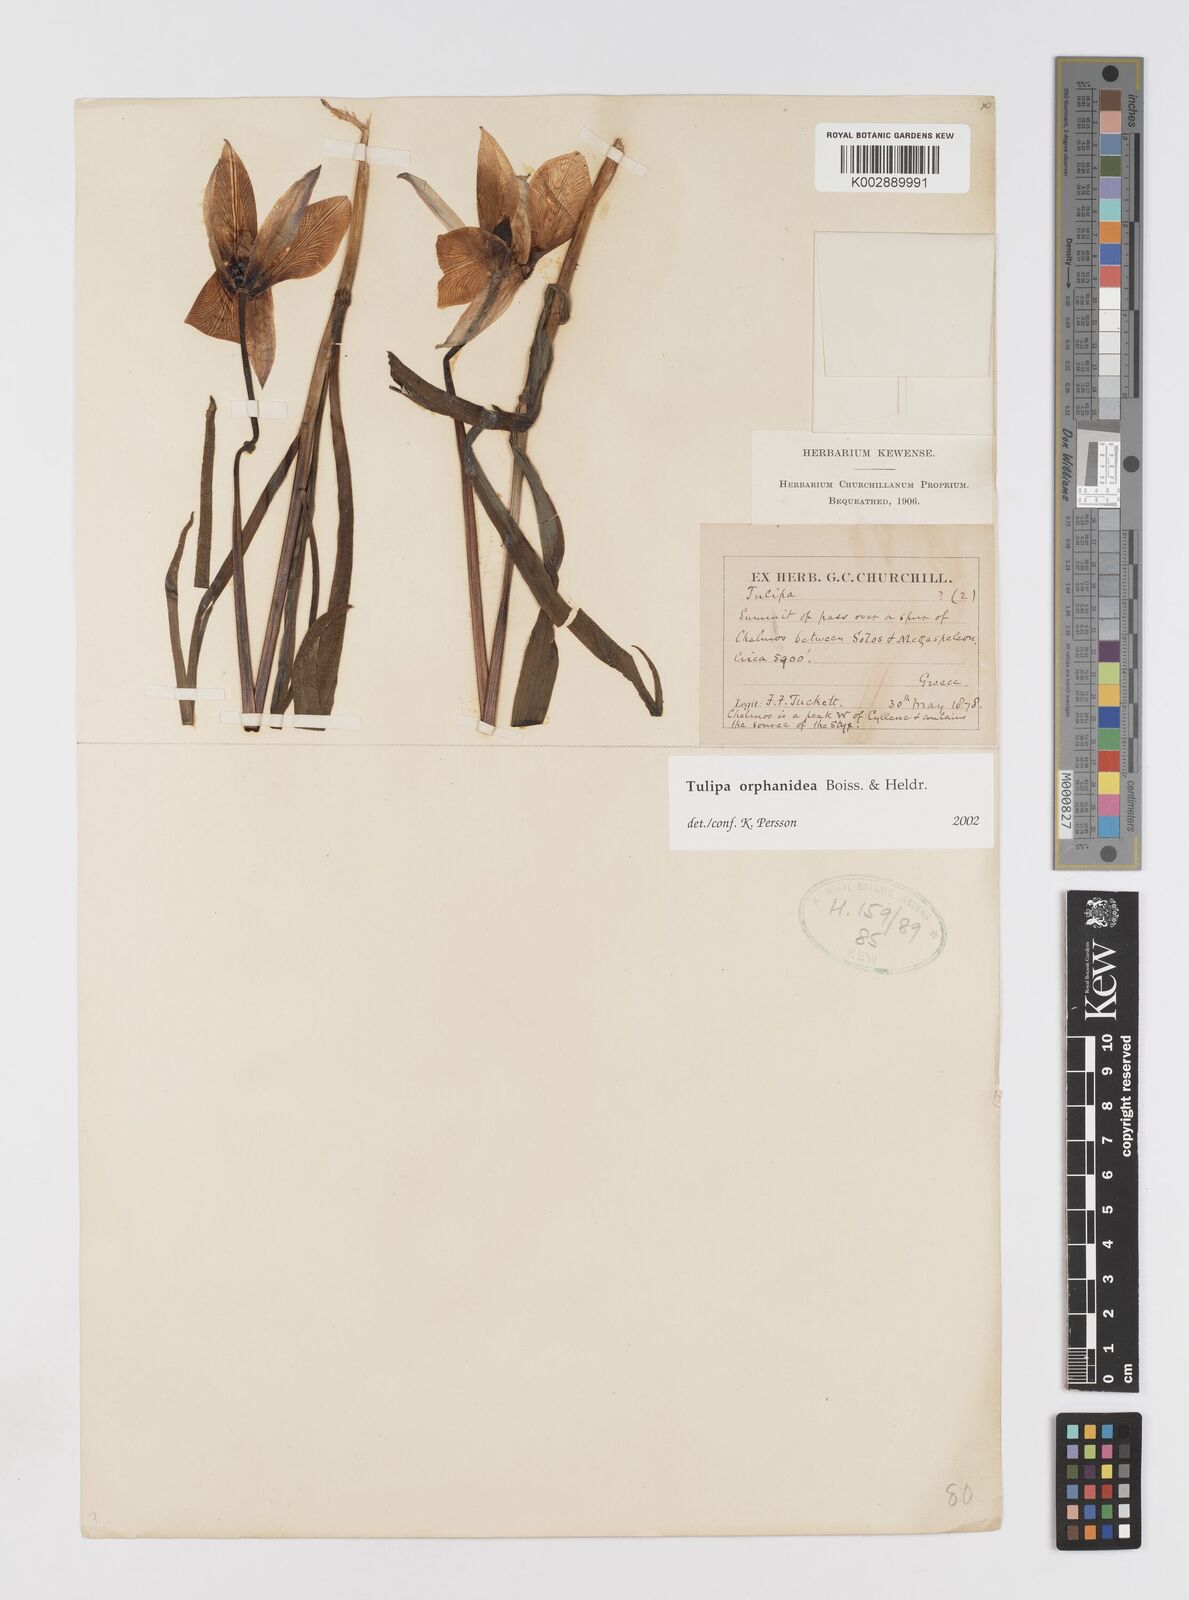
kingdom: Plantae
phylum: Tracheophyta
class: Liliopsida
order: Liliales
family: Liliaceae
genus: Tulipa
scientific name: Tulipa orphanidea
